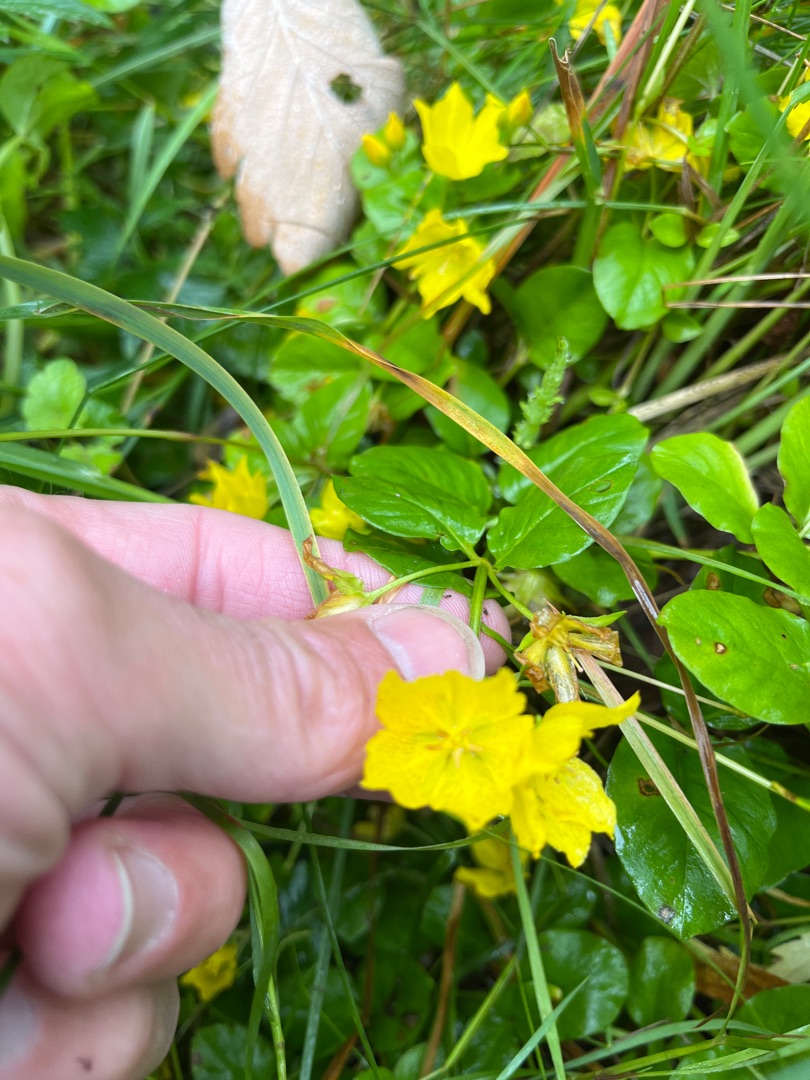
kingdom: Plantae
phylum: Tracheophyta
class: Magnoliopsida
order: Ericales
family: Primulaceae
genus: Lysimachia
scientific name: Lysimachia nummularia
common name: Pengebladet fredløs
